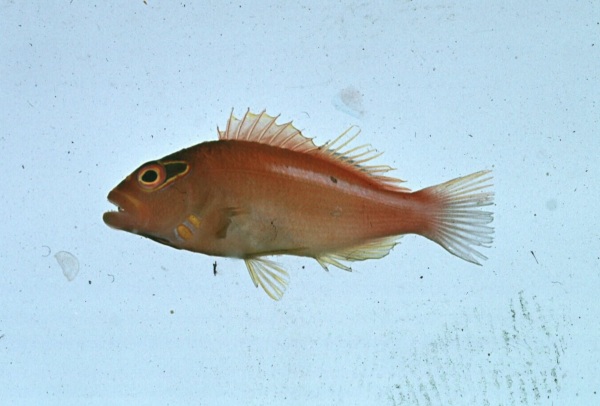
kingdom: Animalia
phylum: Chordata
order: Perciformes
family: Cirrhitidae
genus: Paracirrhites
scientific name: Paracirrhites arcatus
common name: Arc-eye hawkfish
